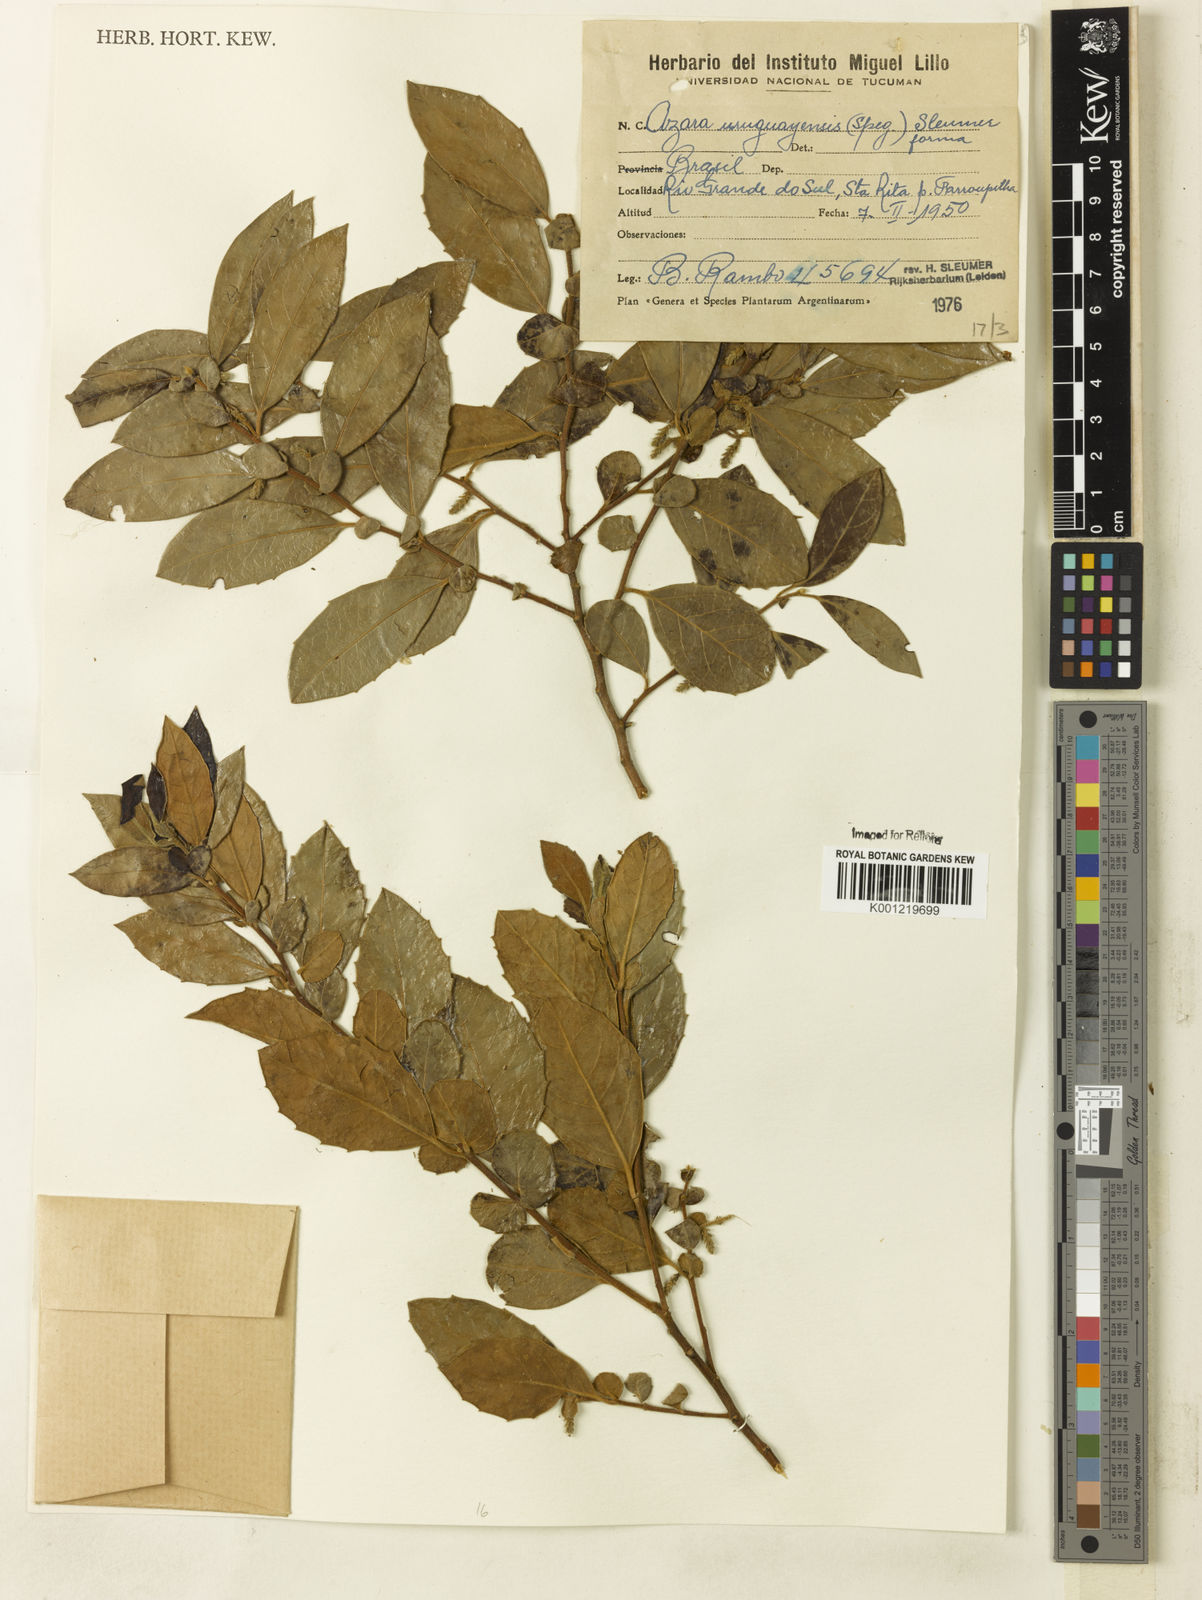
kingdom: Plantae
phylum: Tracheophyta
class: Magnoliopsida
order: Malpighiales
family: Salicaceae
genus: Azara
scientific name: Azara uruguayensis
